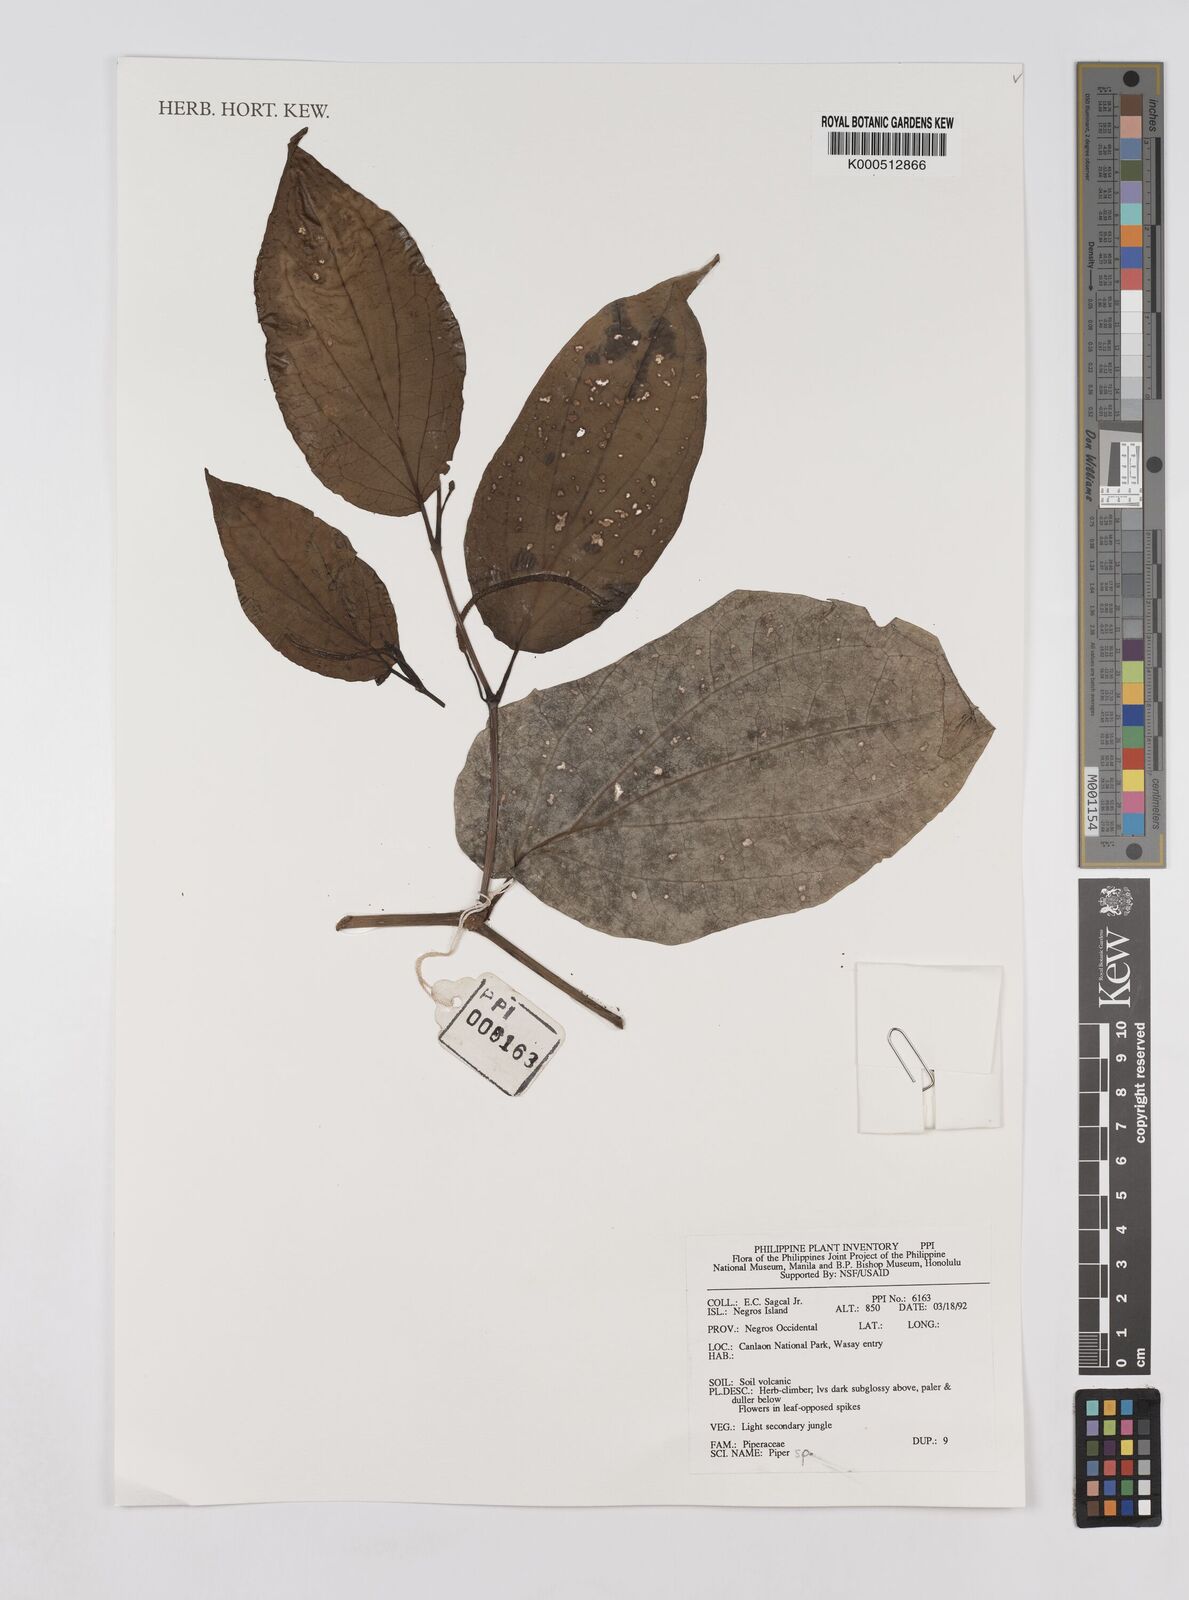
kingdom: Plantae
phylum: Tracheophyta
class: Magnoliopsida
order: Piperales
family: Piperaceae
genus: Piper
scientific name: Piper
